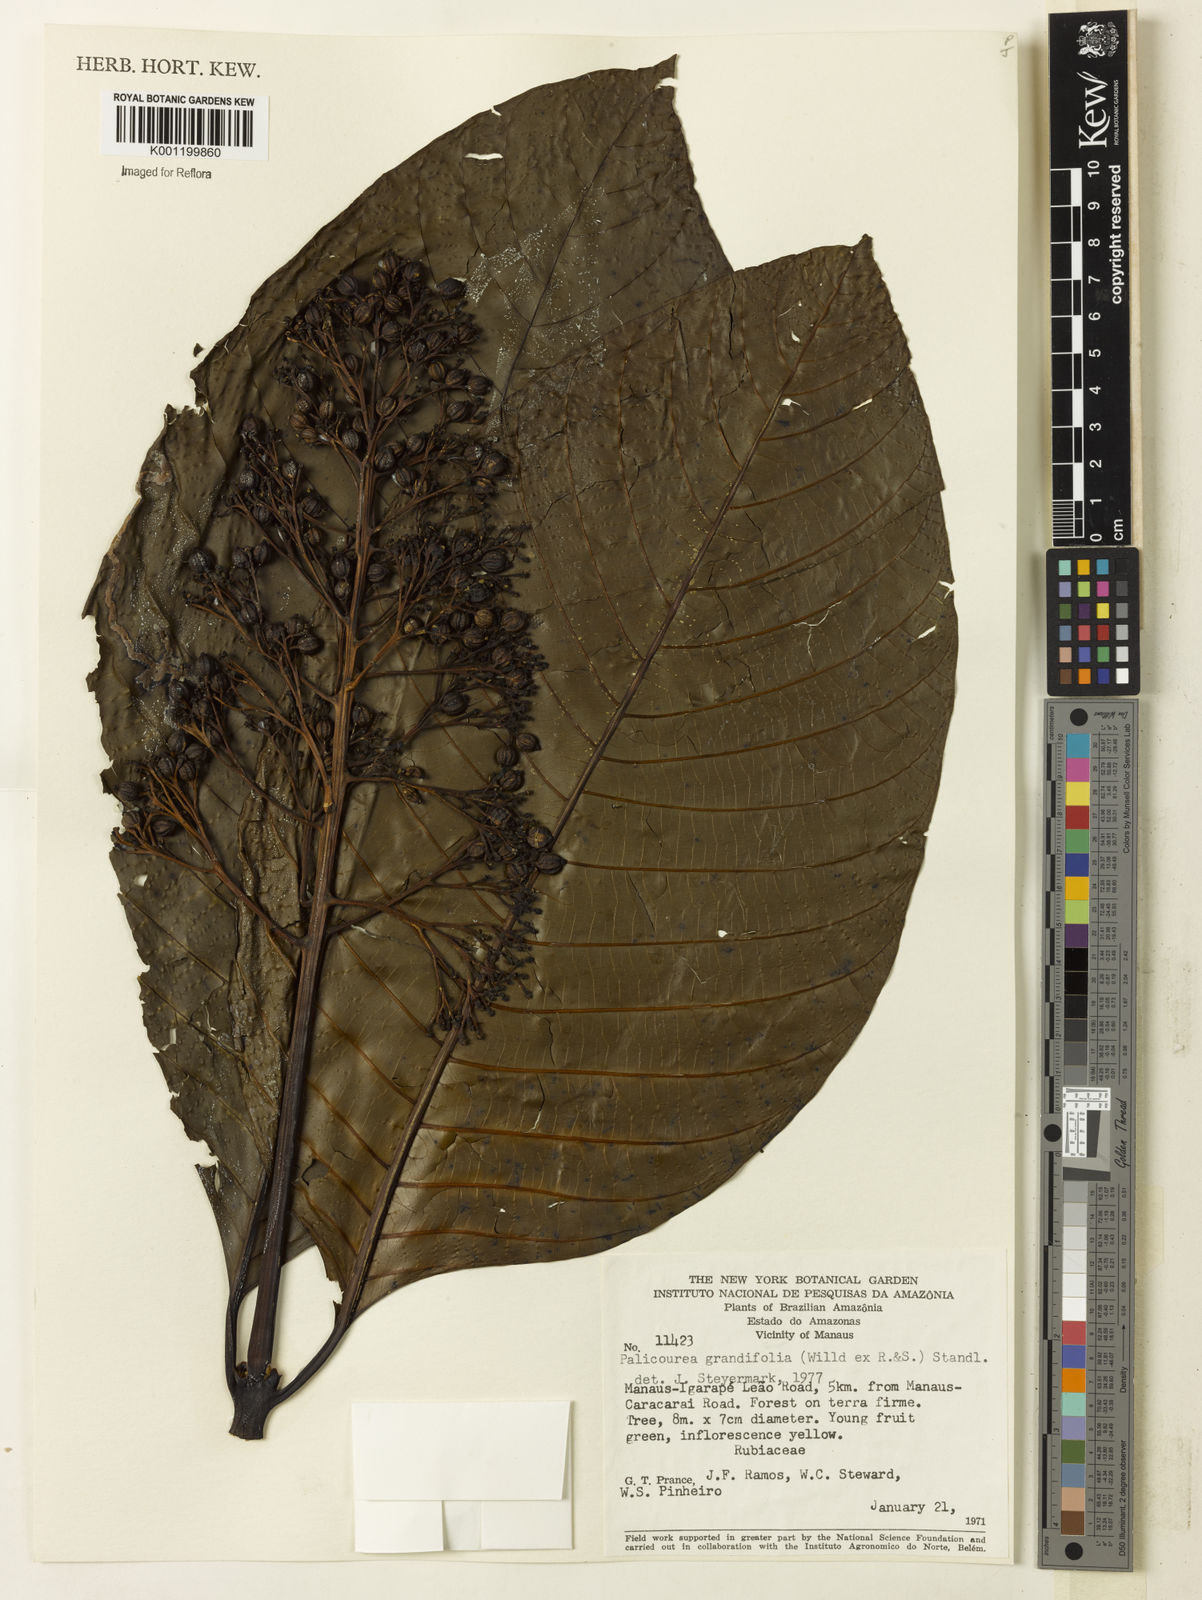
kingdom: Plantae
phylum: Tracheophyta
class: Magnoliopsida
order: Gentianales
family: Rubiaceae
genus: Palicourea
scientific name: Palicourea grandifolia
